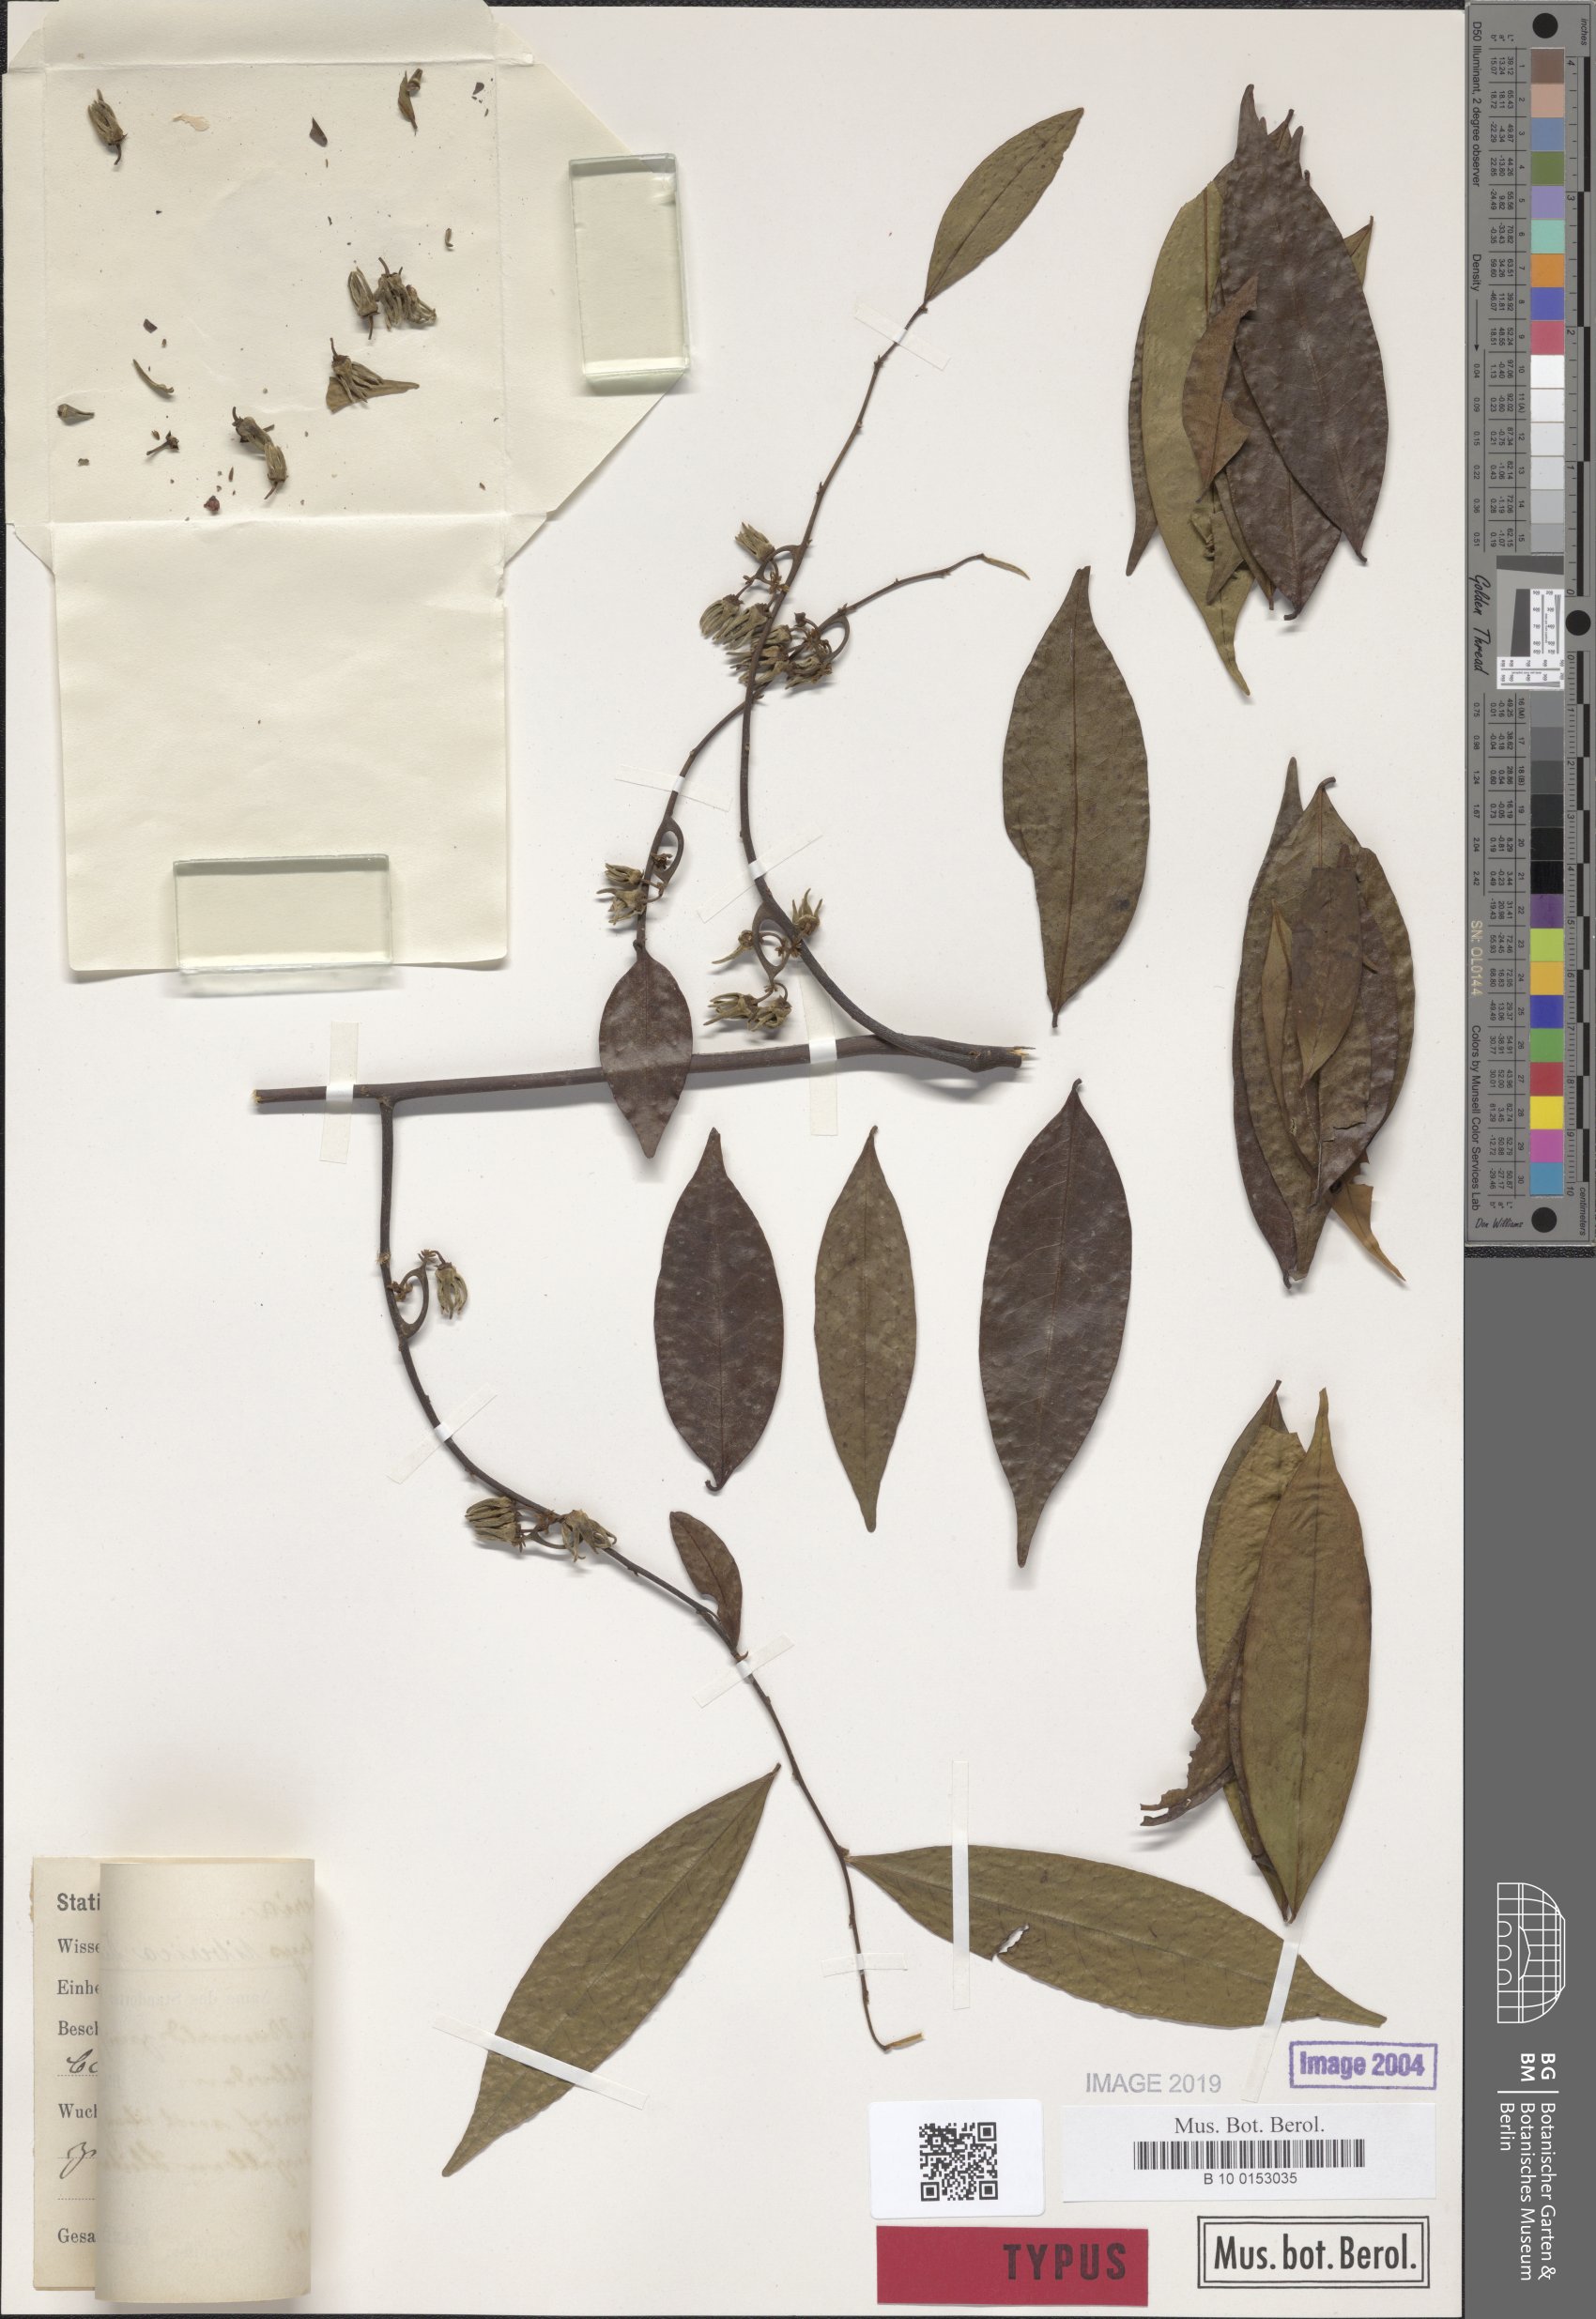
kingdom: Plantae
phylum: Tracheophyta
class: Magnoliopsida
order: Magnoliales
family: Annonaceae
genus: Artabotrys
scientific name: Artabotrys libericus
